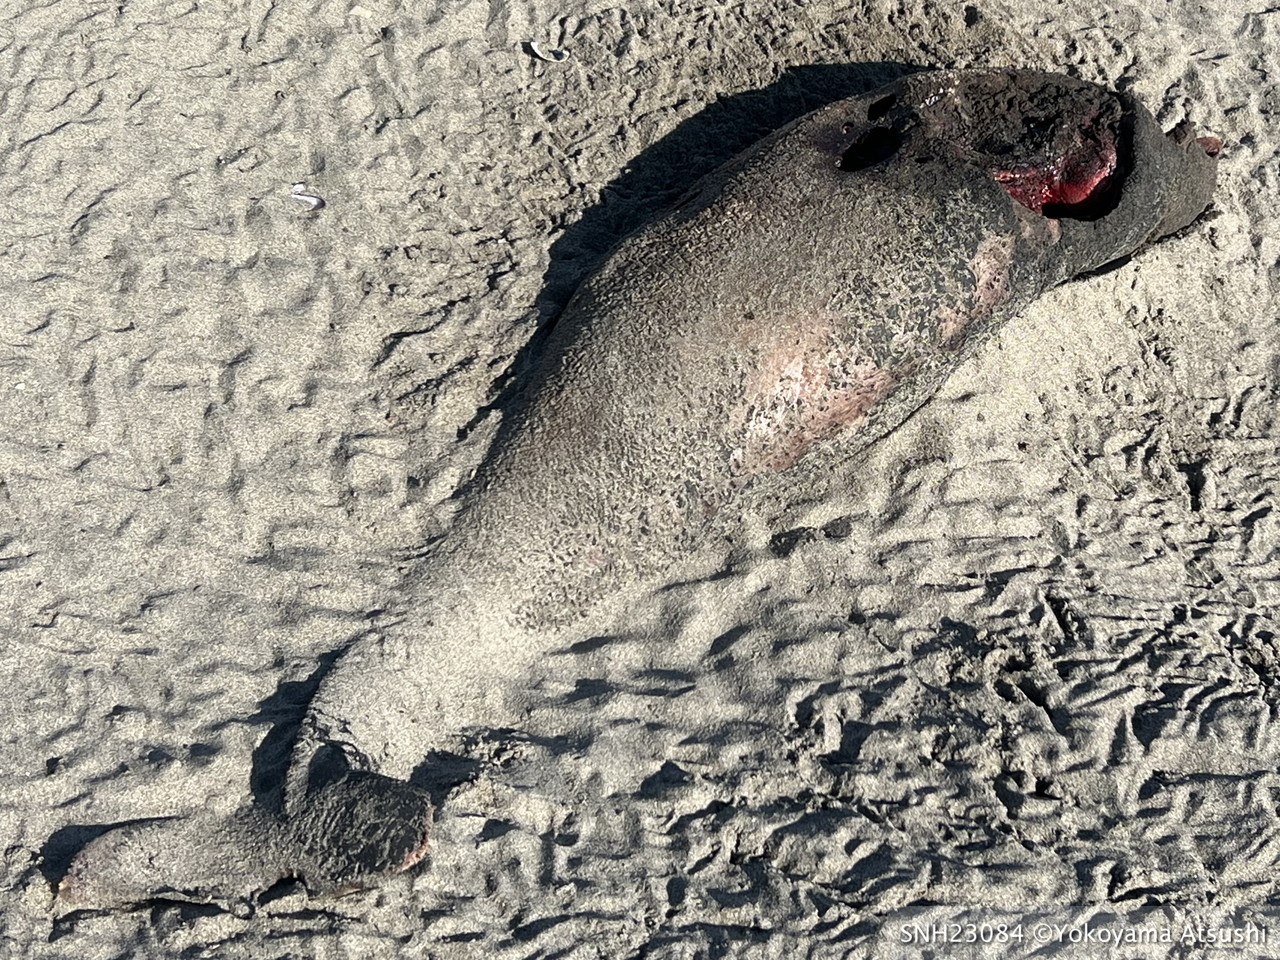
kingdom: Animalia
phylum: Chordata
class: Mammalia
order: Cetacea
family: Phocoenidae
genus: Phocoena
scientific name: Phocoena phocoena
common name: Harbour porpoise
